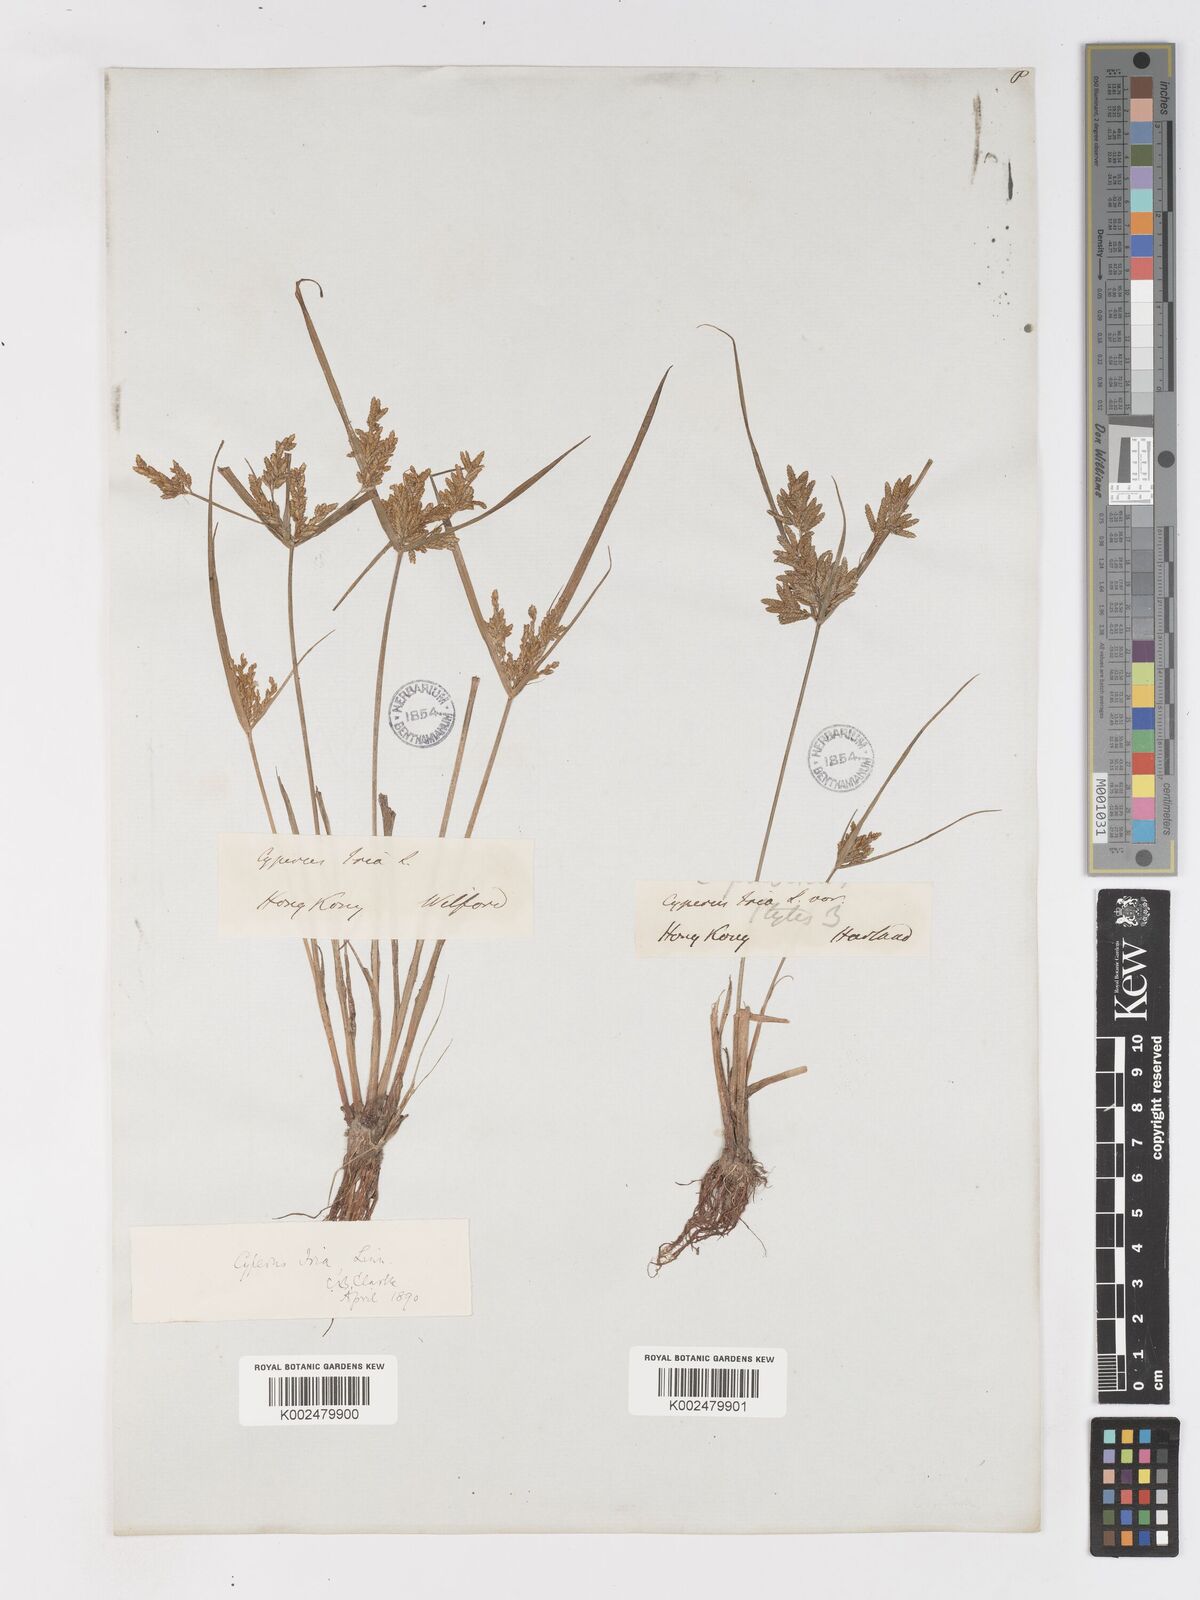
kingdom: Plantae
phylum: Tracheophyta
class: Liliopsida
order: Poales
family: Cyperaceae
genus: Cyperus
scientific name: Cyperus iria
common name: Ricefield flatsedge
